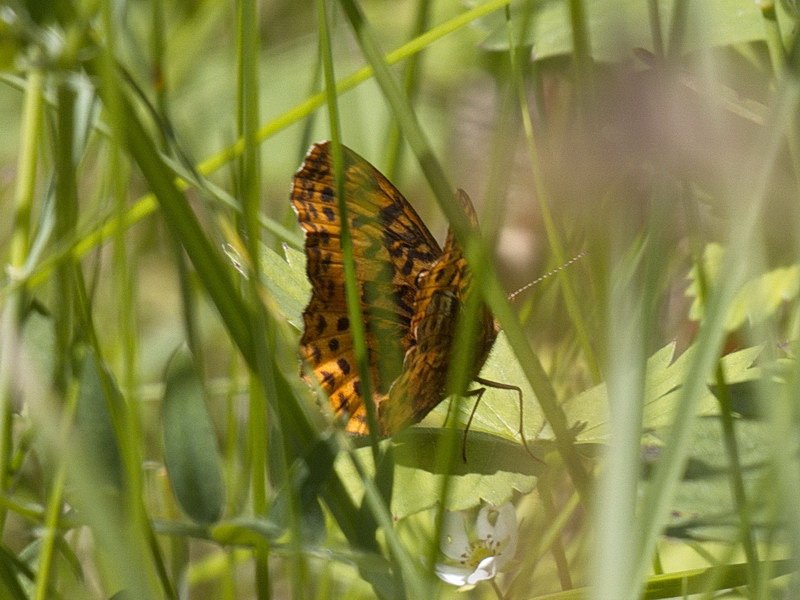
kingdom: Animalia
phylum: Arthropoda
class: Insecta
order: Lepidoptera
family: Nymphalidae
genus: Clossiana
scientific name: Clossiana toddi
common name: Meadow Fritillary
